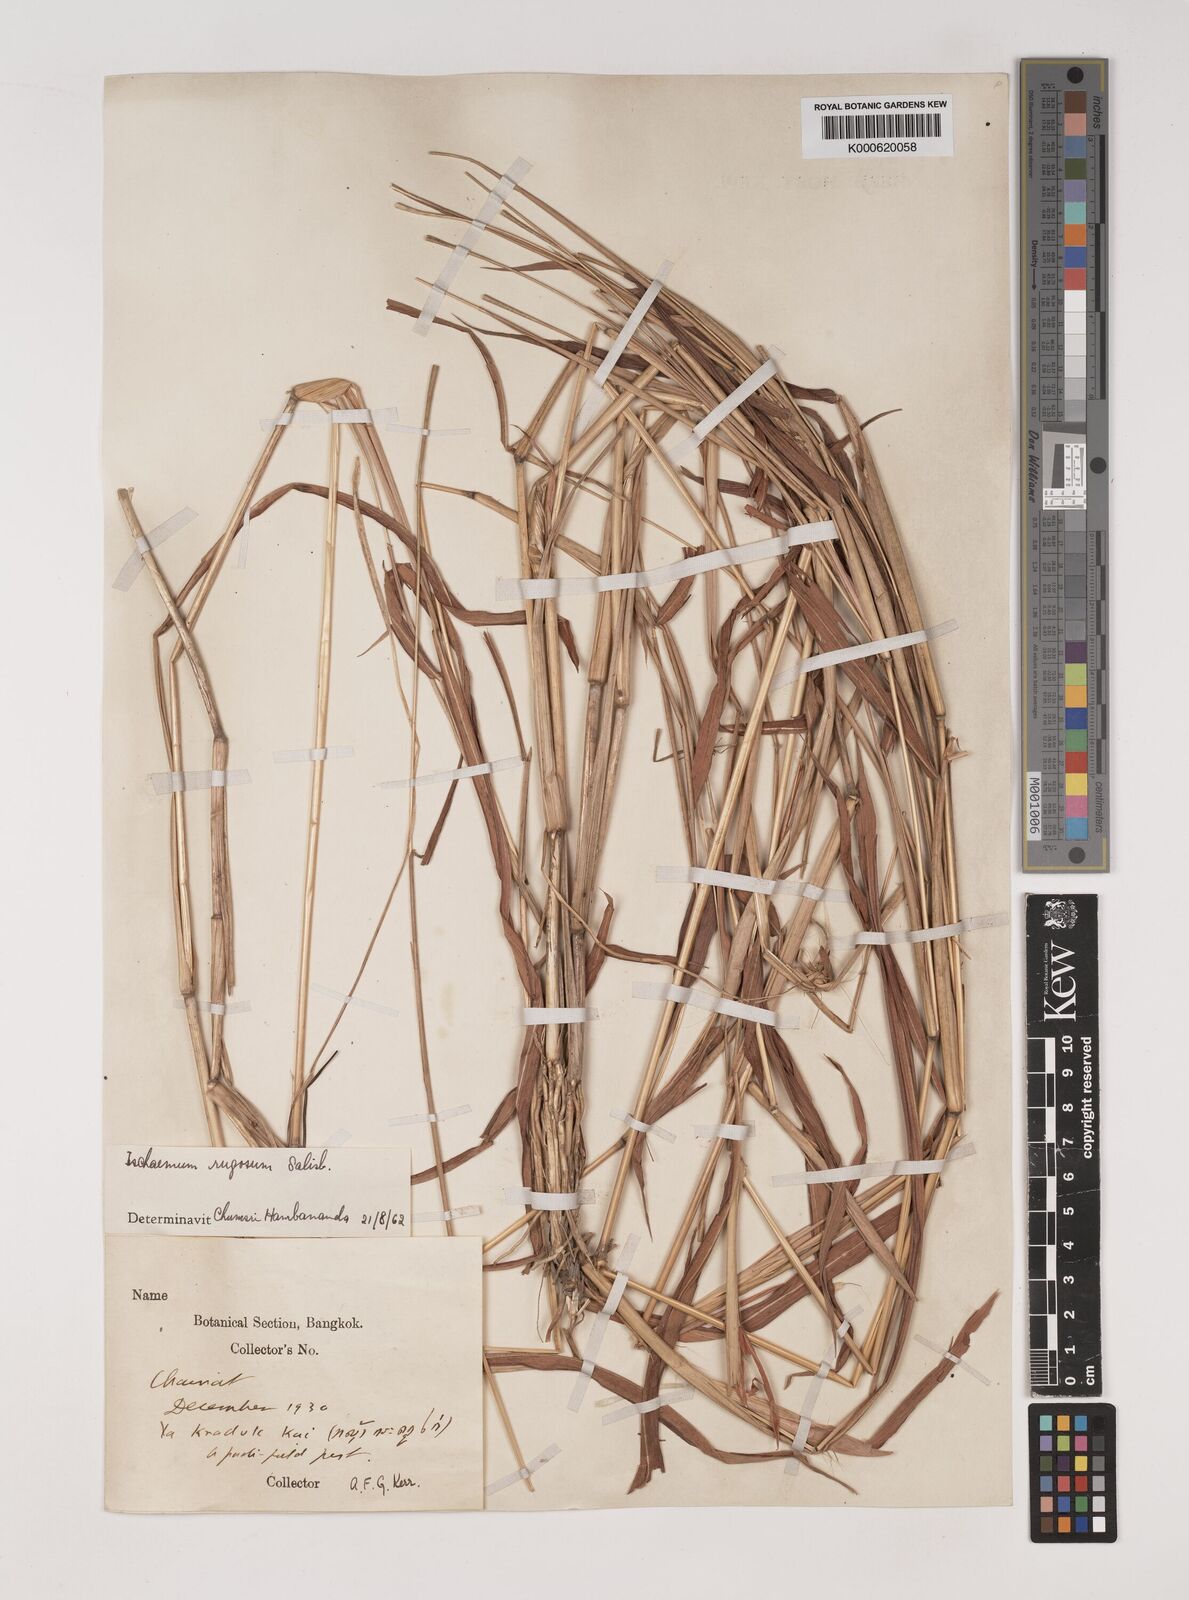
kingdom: Plantae
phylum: Tracheophyta
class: Liliopsida
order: Poales
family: Poaceae
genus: Ischaemum
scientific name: Ischaemum rugosum
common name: Saramatta grass
